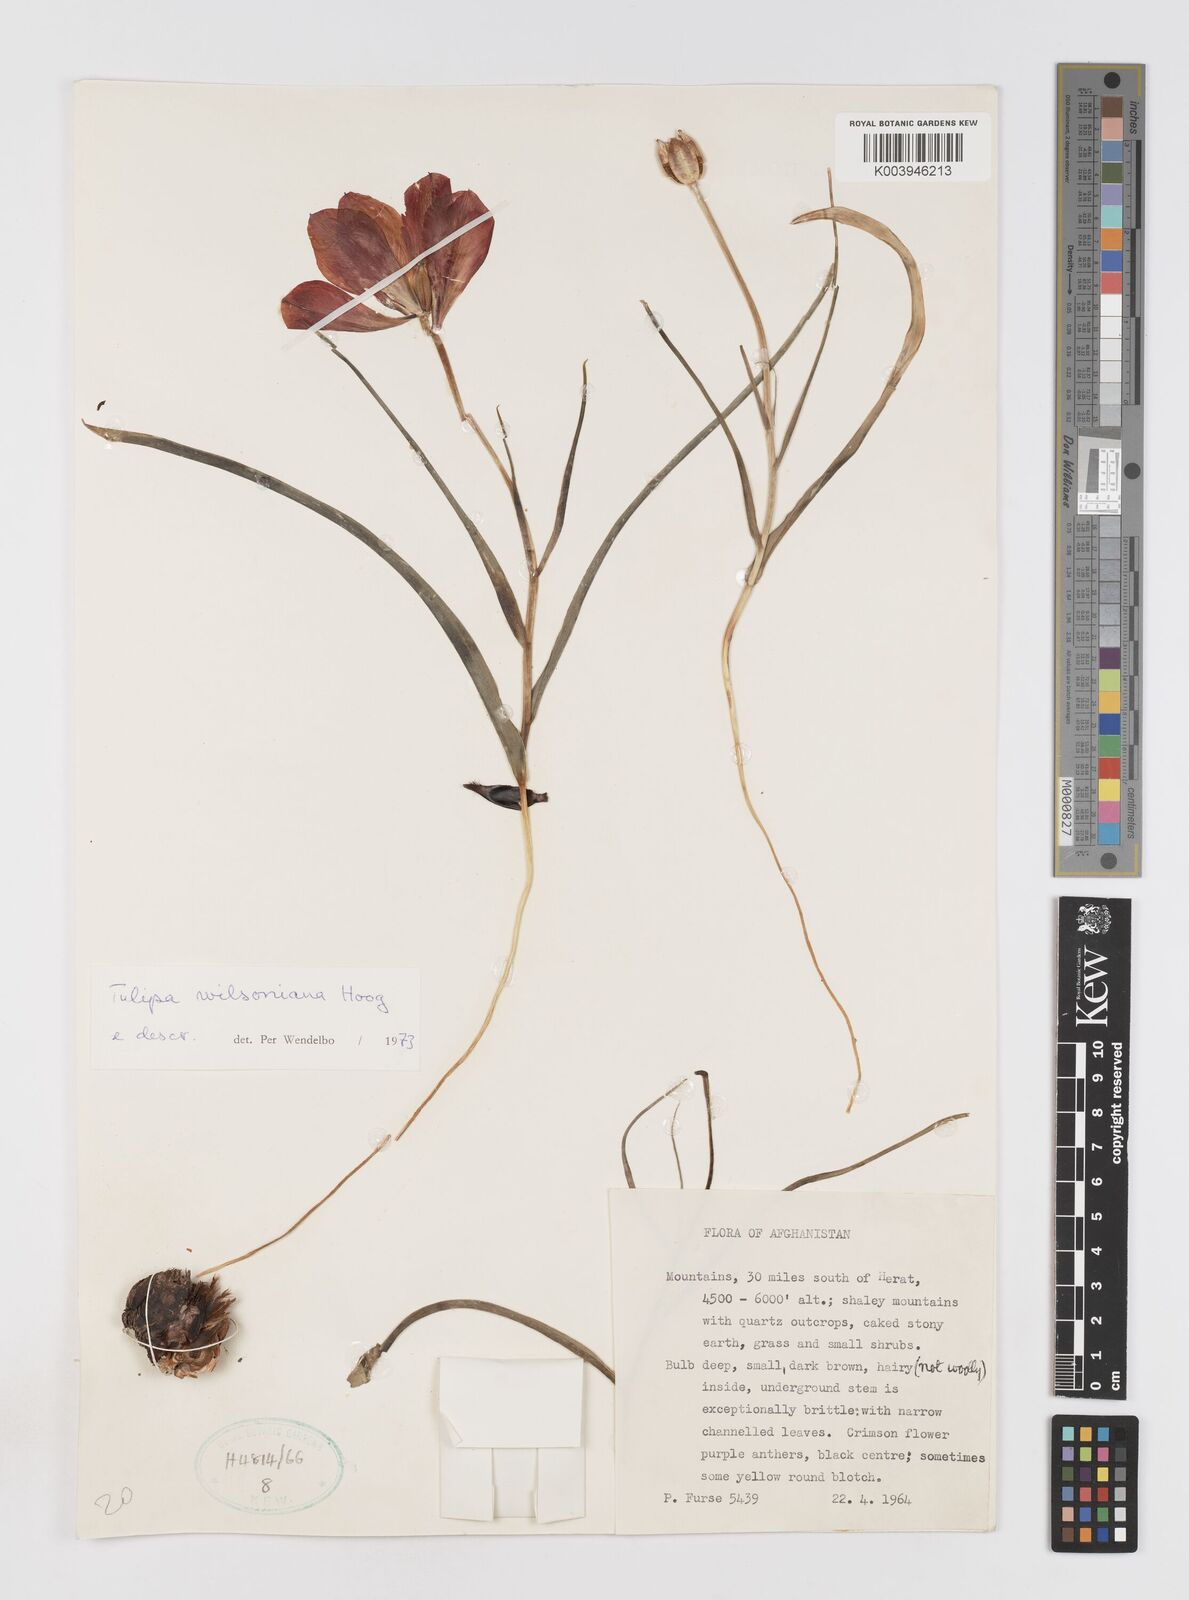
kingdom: Plantae
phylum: Tracheophyta
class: Liliopsida
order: Liliales
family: Liliaceae
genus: Tulipa
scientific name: Tulipa montana
